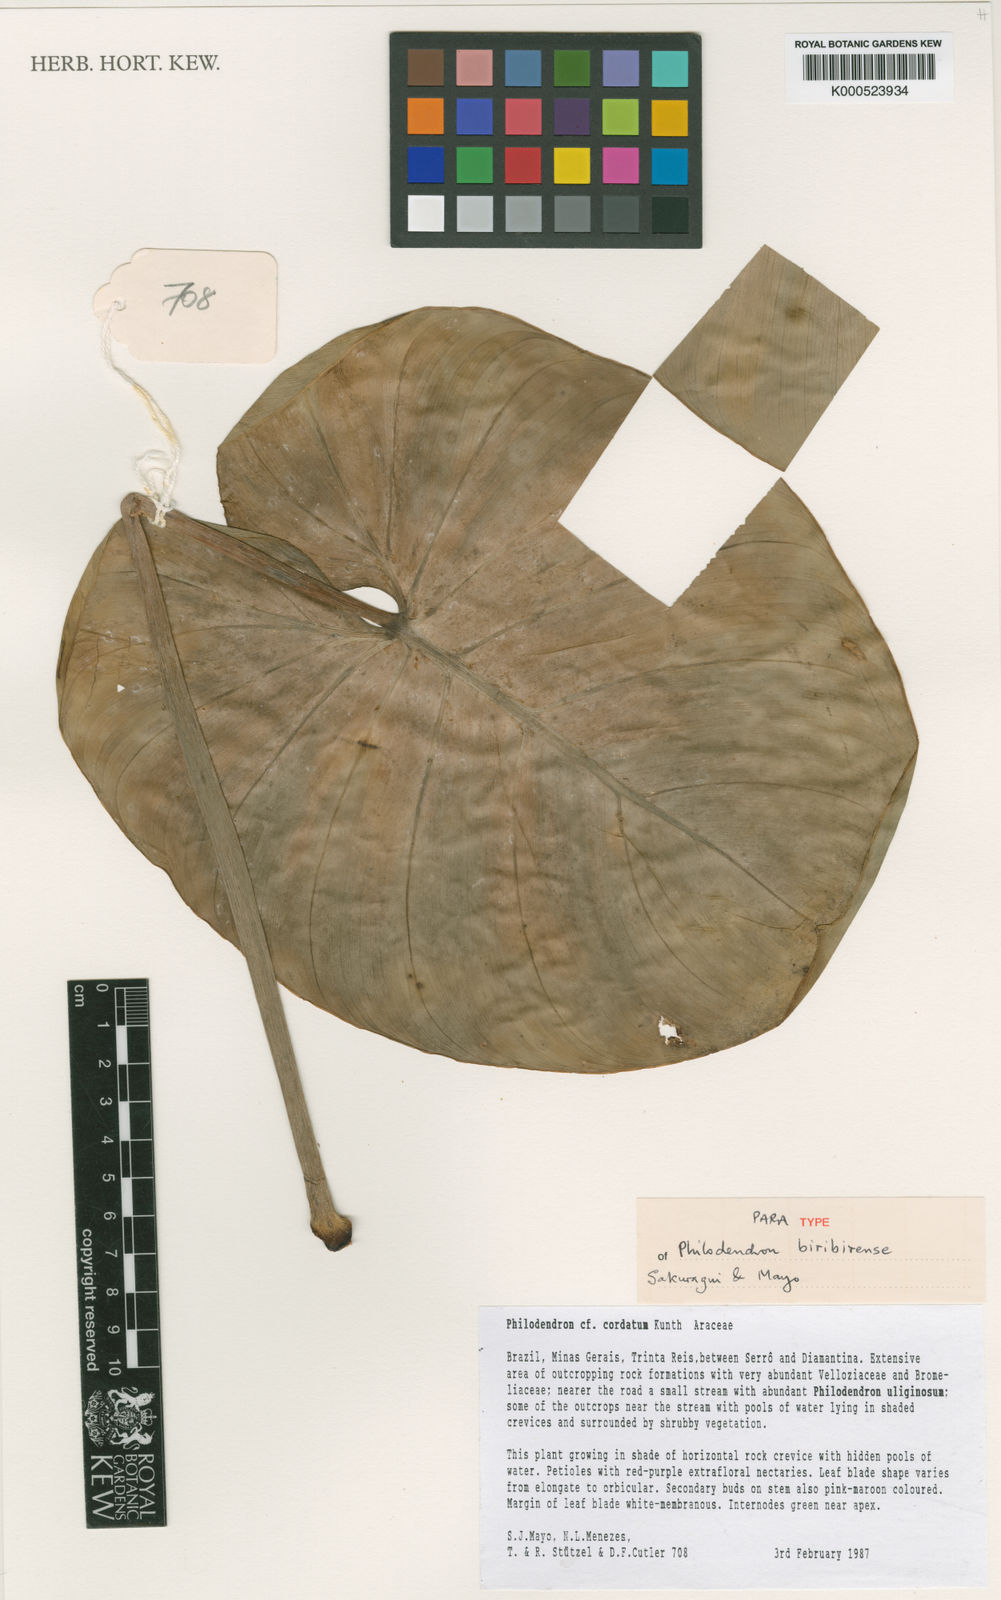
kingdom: Plantae
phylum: Tracheophyta
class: Liliopsida
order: Alismatales
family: Araceae
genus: Philodendron
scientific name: Philodendron biribiriense
